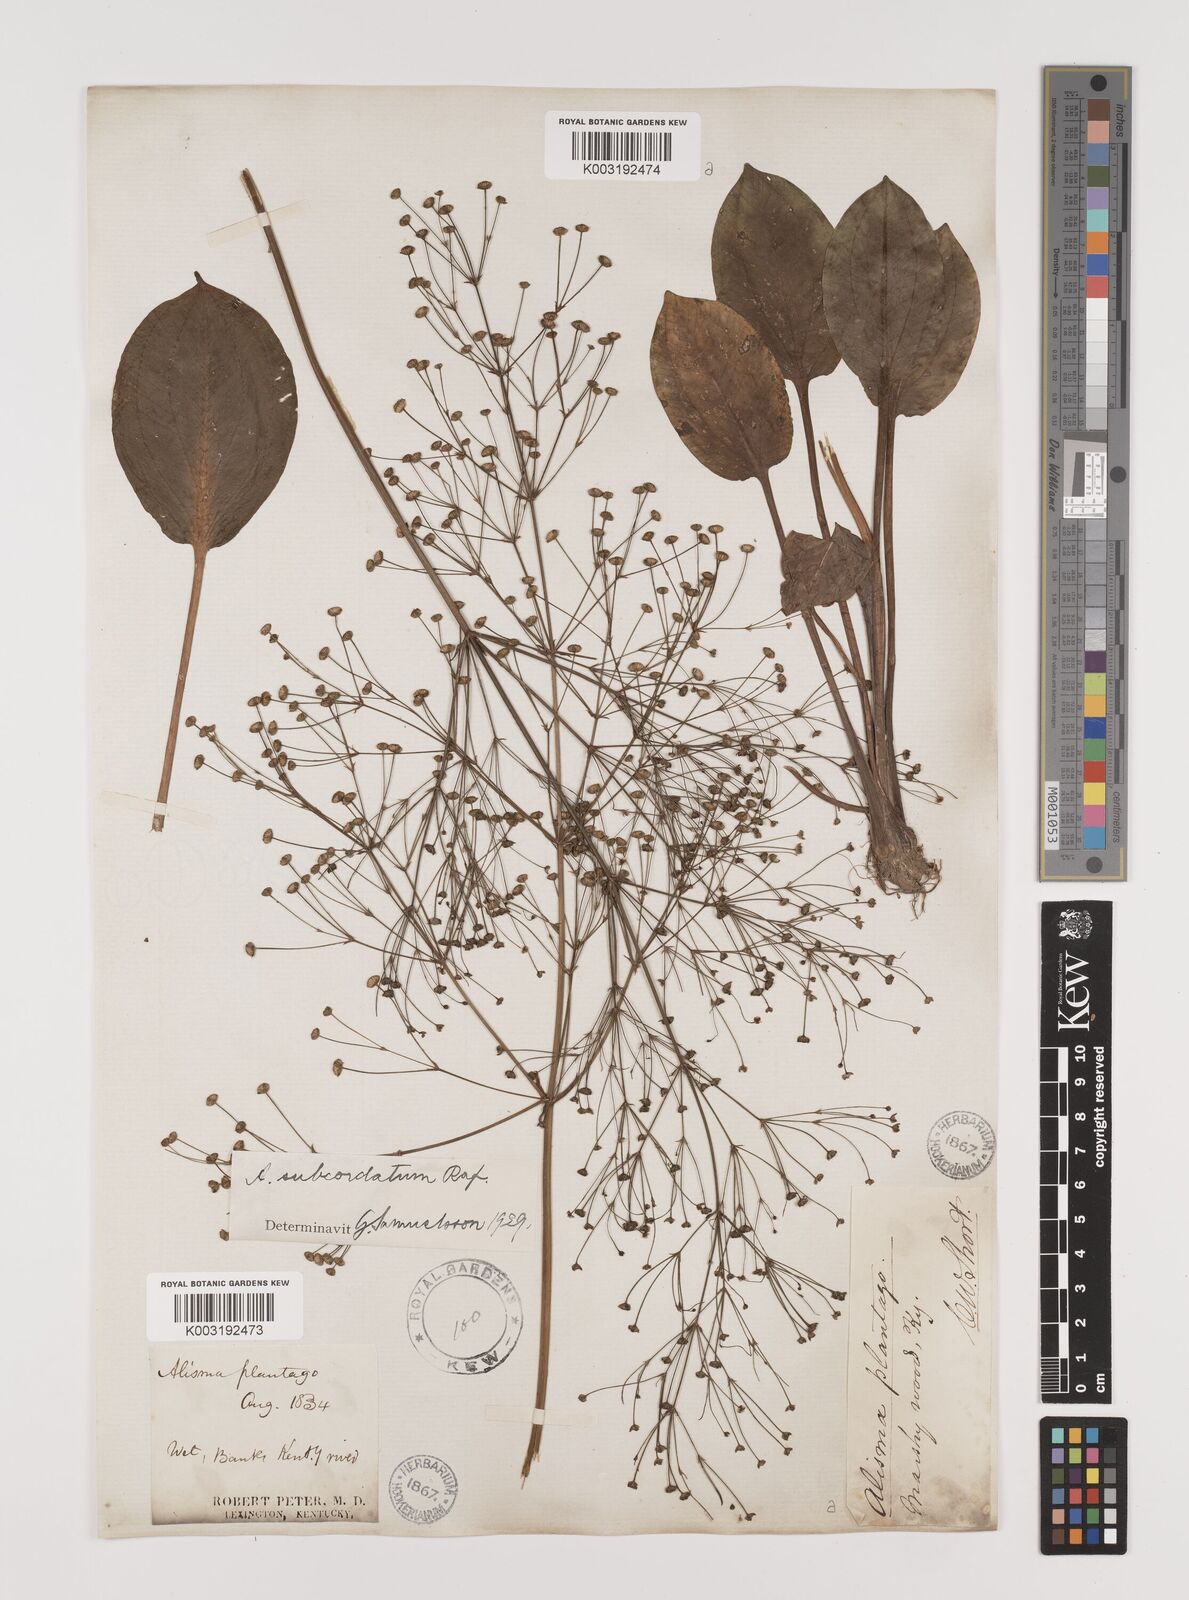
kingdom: Plantae
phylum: Tracheophyta
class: Liliopsida
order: Alismatales
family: Alismataceae
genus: Alisma
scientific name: Alisma subcordatum
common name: Southern water-plantain
